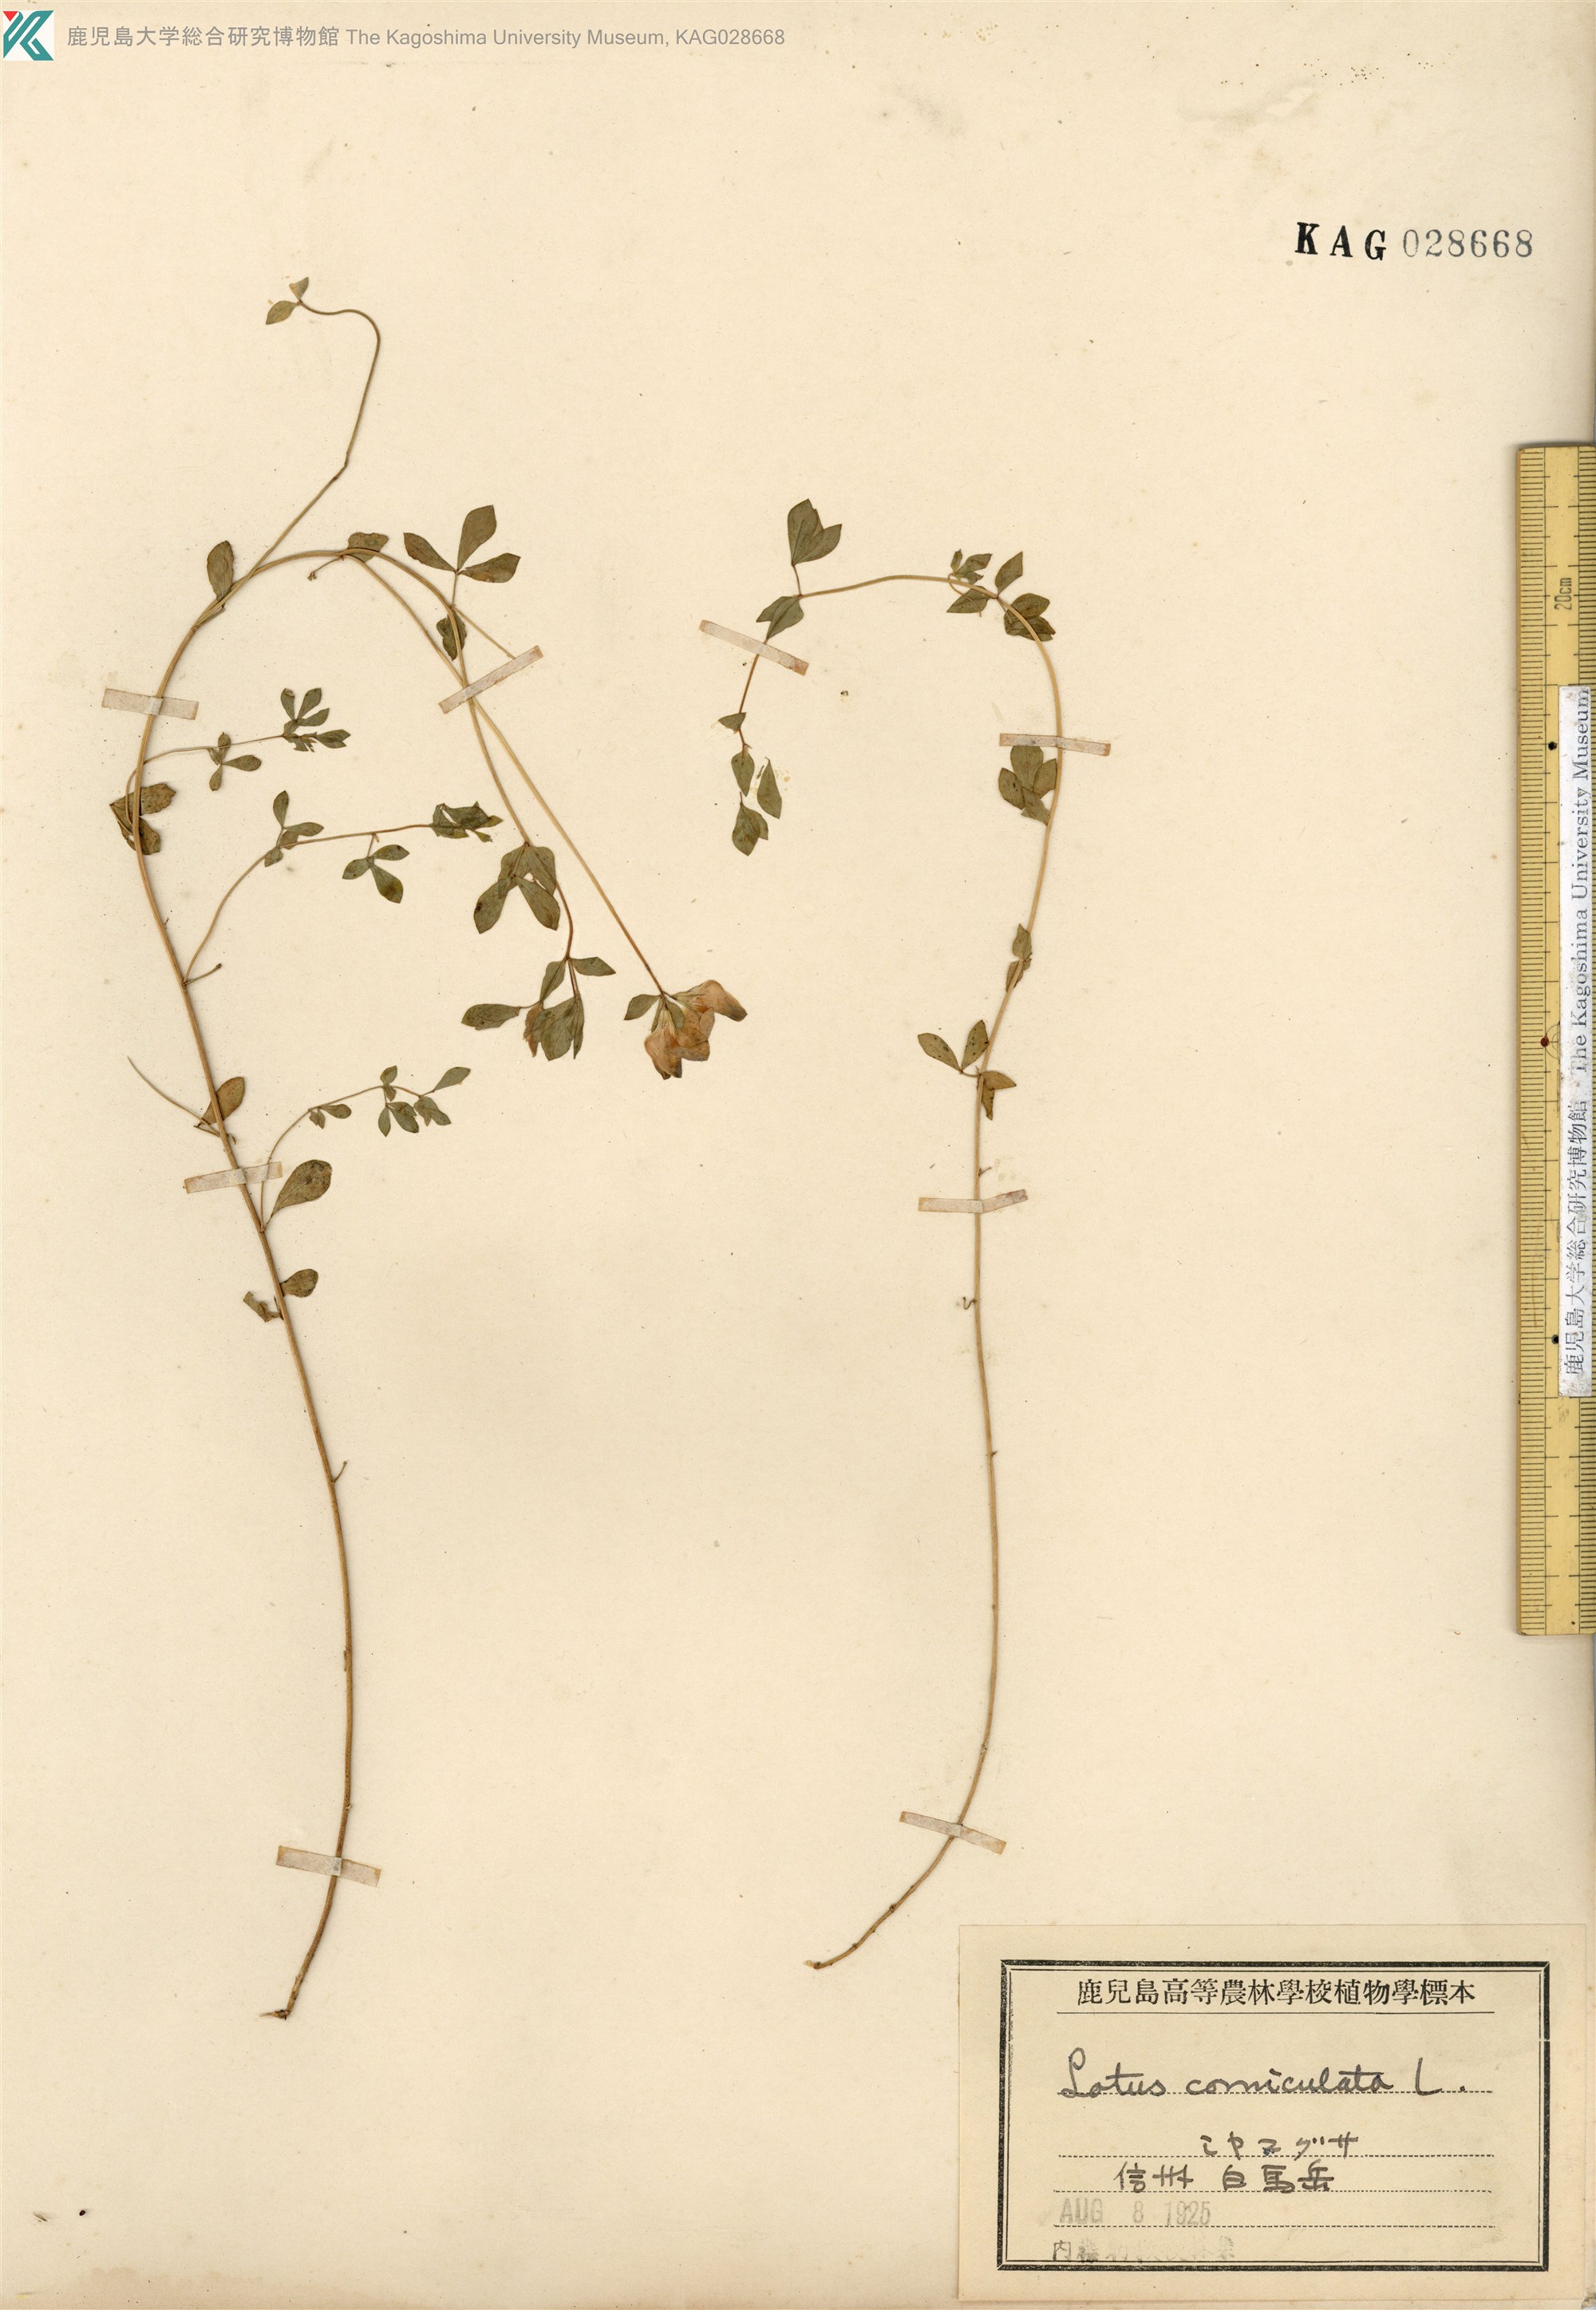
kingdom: Plantae
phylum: Tracheophyta
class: Magnoliopsida
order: Fabales
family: Fabaceae
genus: Lotus
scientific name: Lotus japonicus
